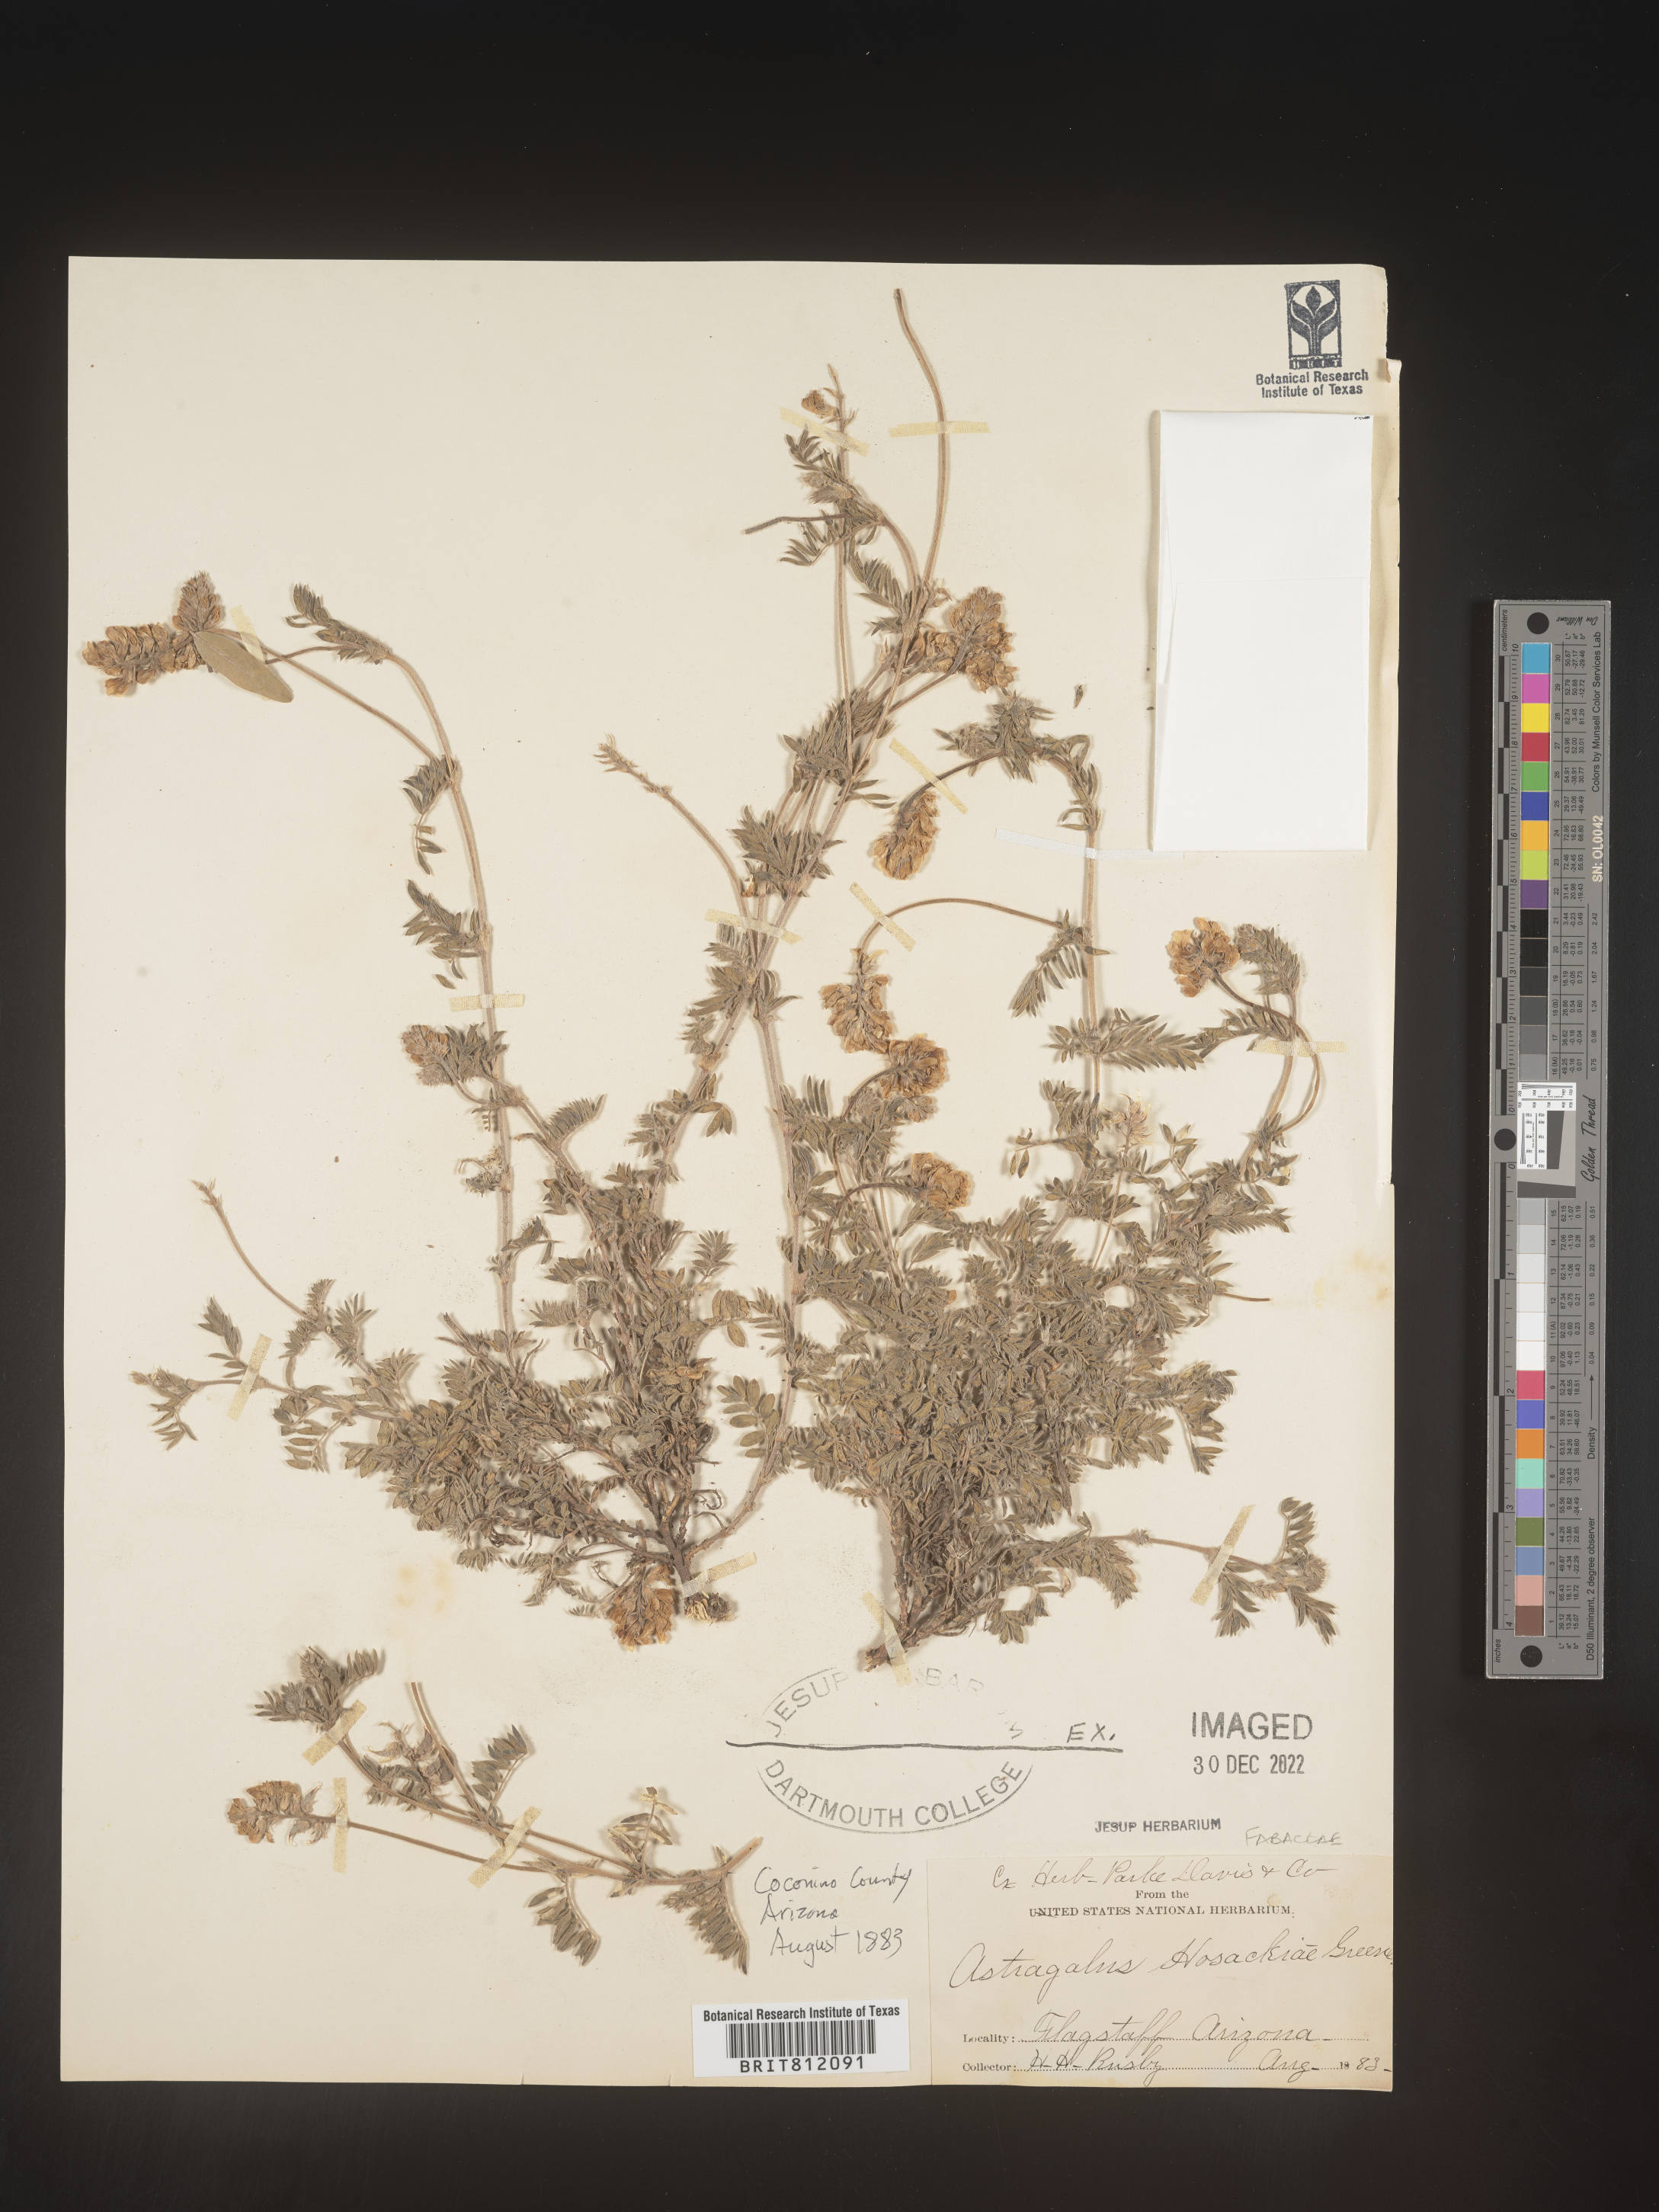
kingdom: Plantae
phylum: Tracheophyta
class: Magnoliopsida
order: Fabales
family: Fabaceae
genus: Astragalus
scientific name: Astragalus
